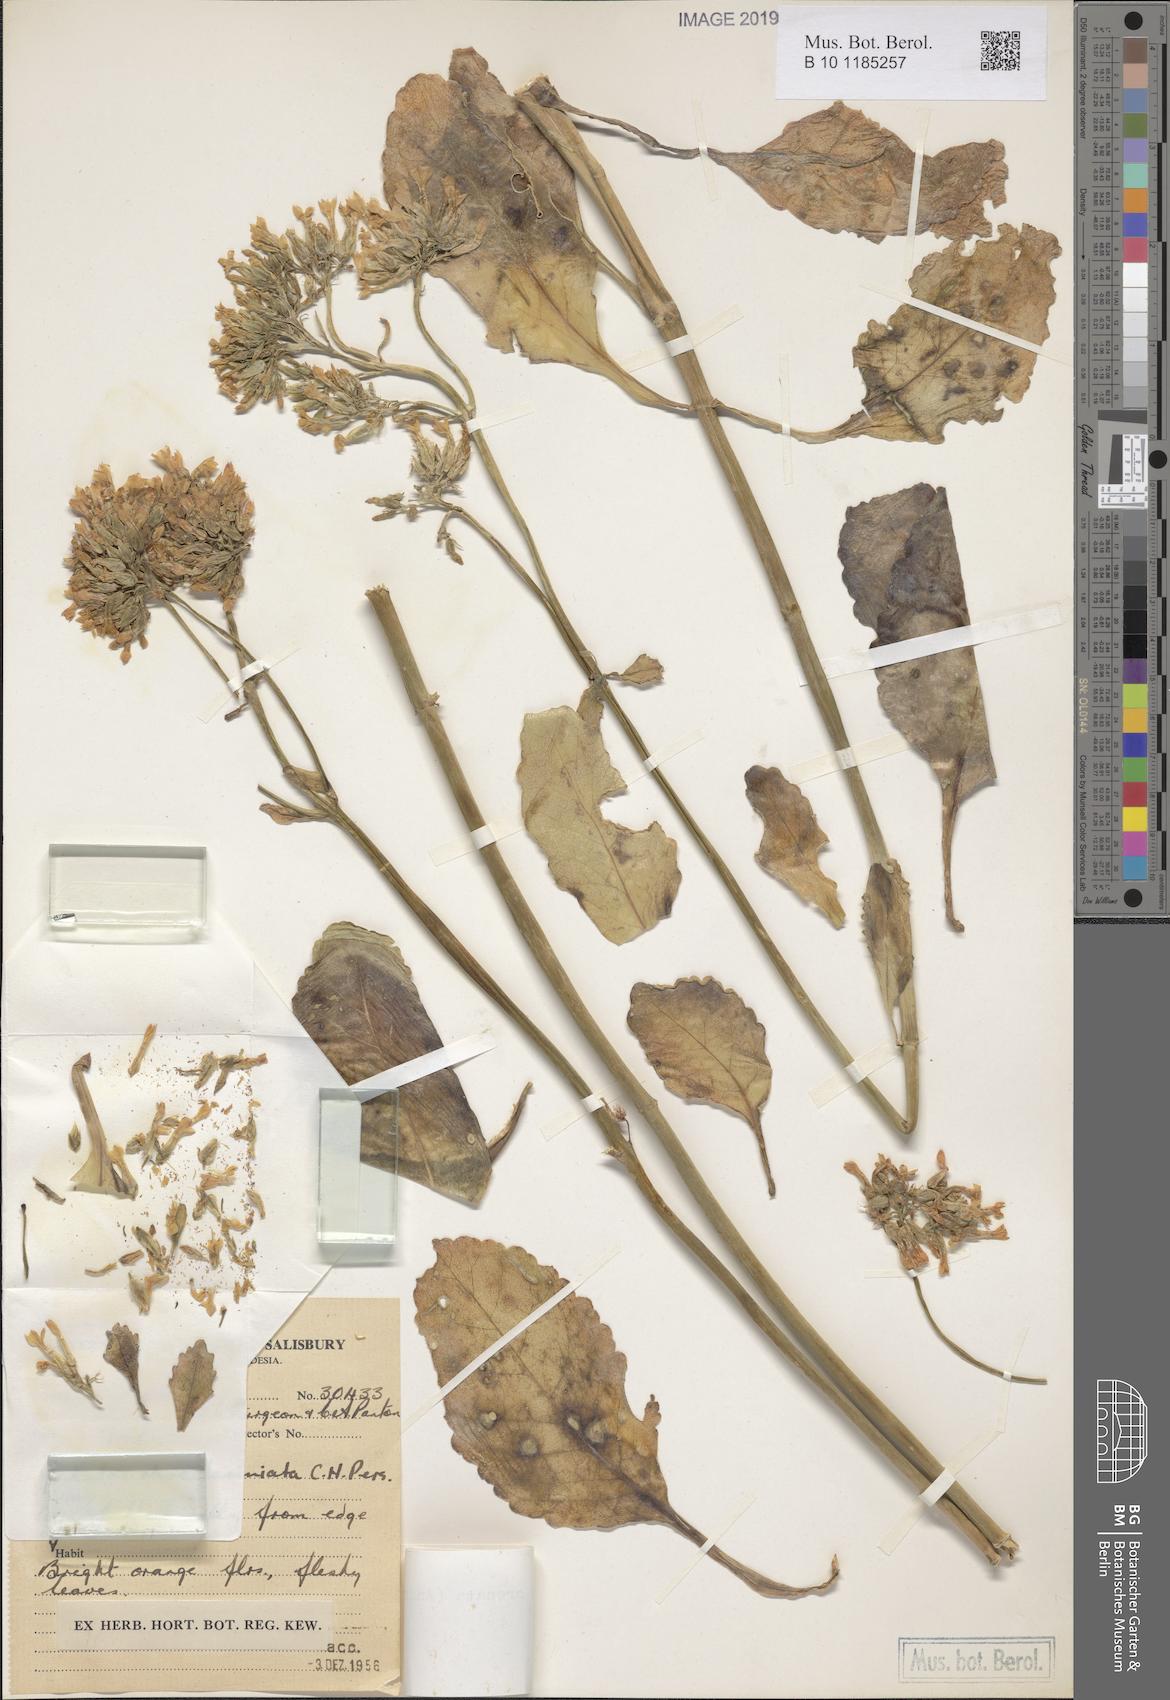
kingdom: Plantae
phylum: Tracheophyta
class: Magnoliopsida
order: Saxifragales
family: Crassulaceae
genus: Kalanchoe
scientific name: Kalanchoe crenata
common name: Neverdie
